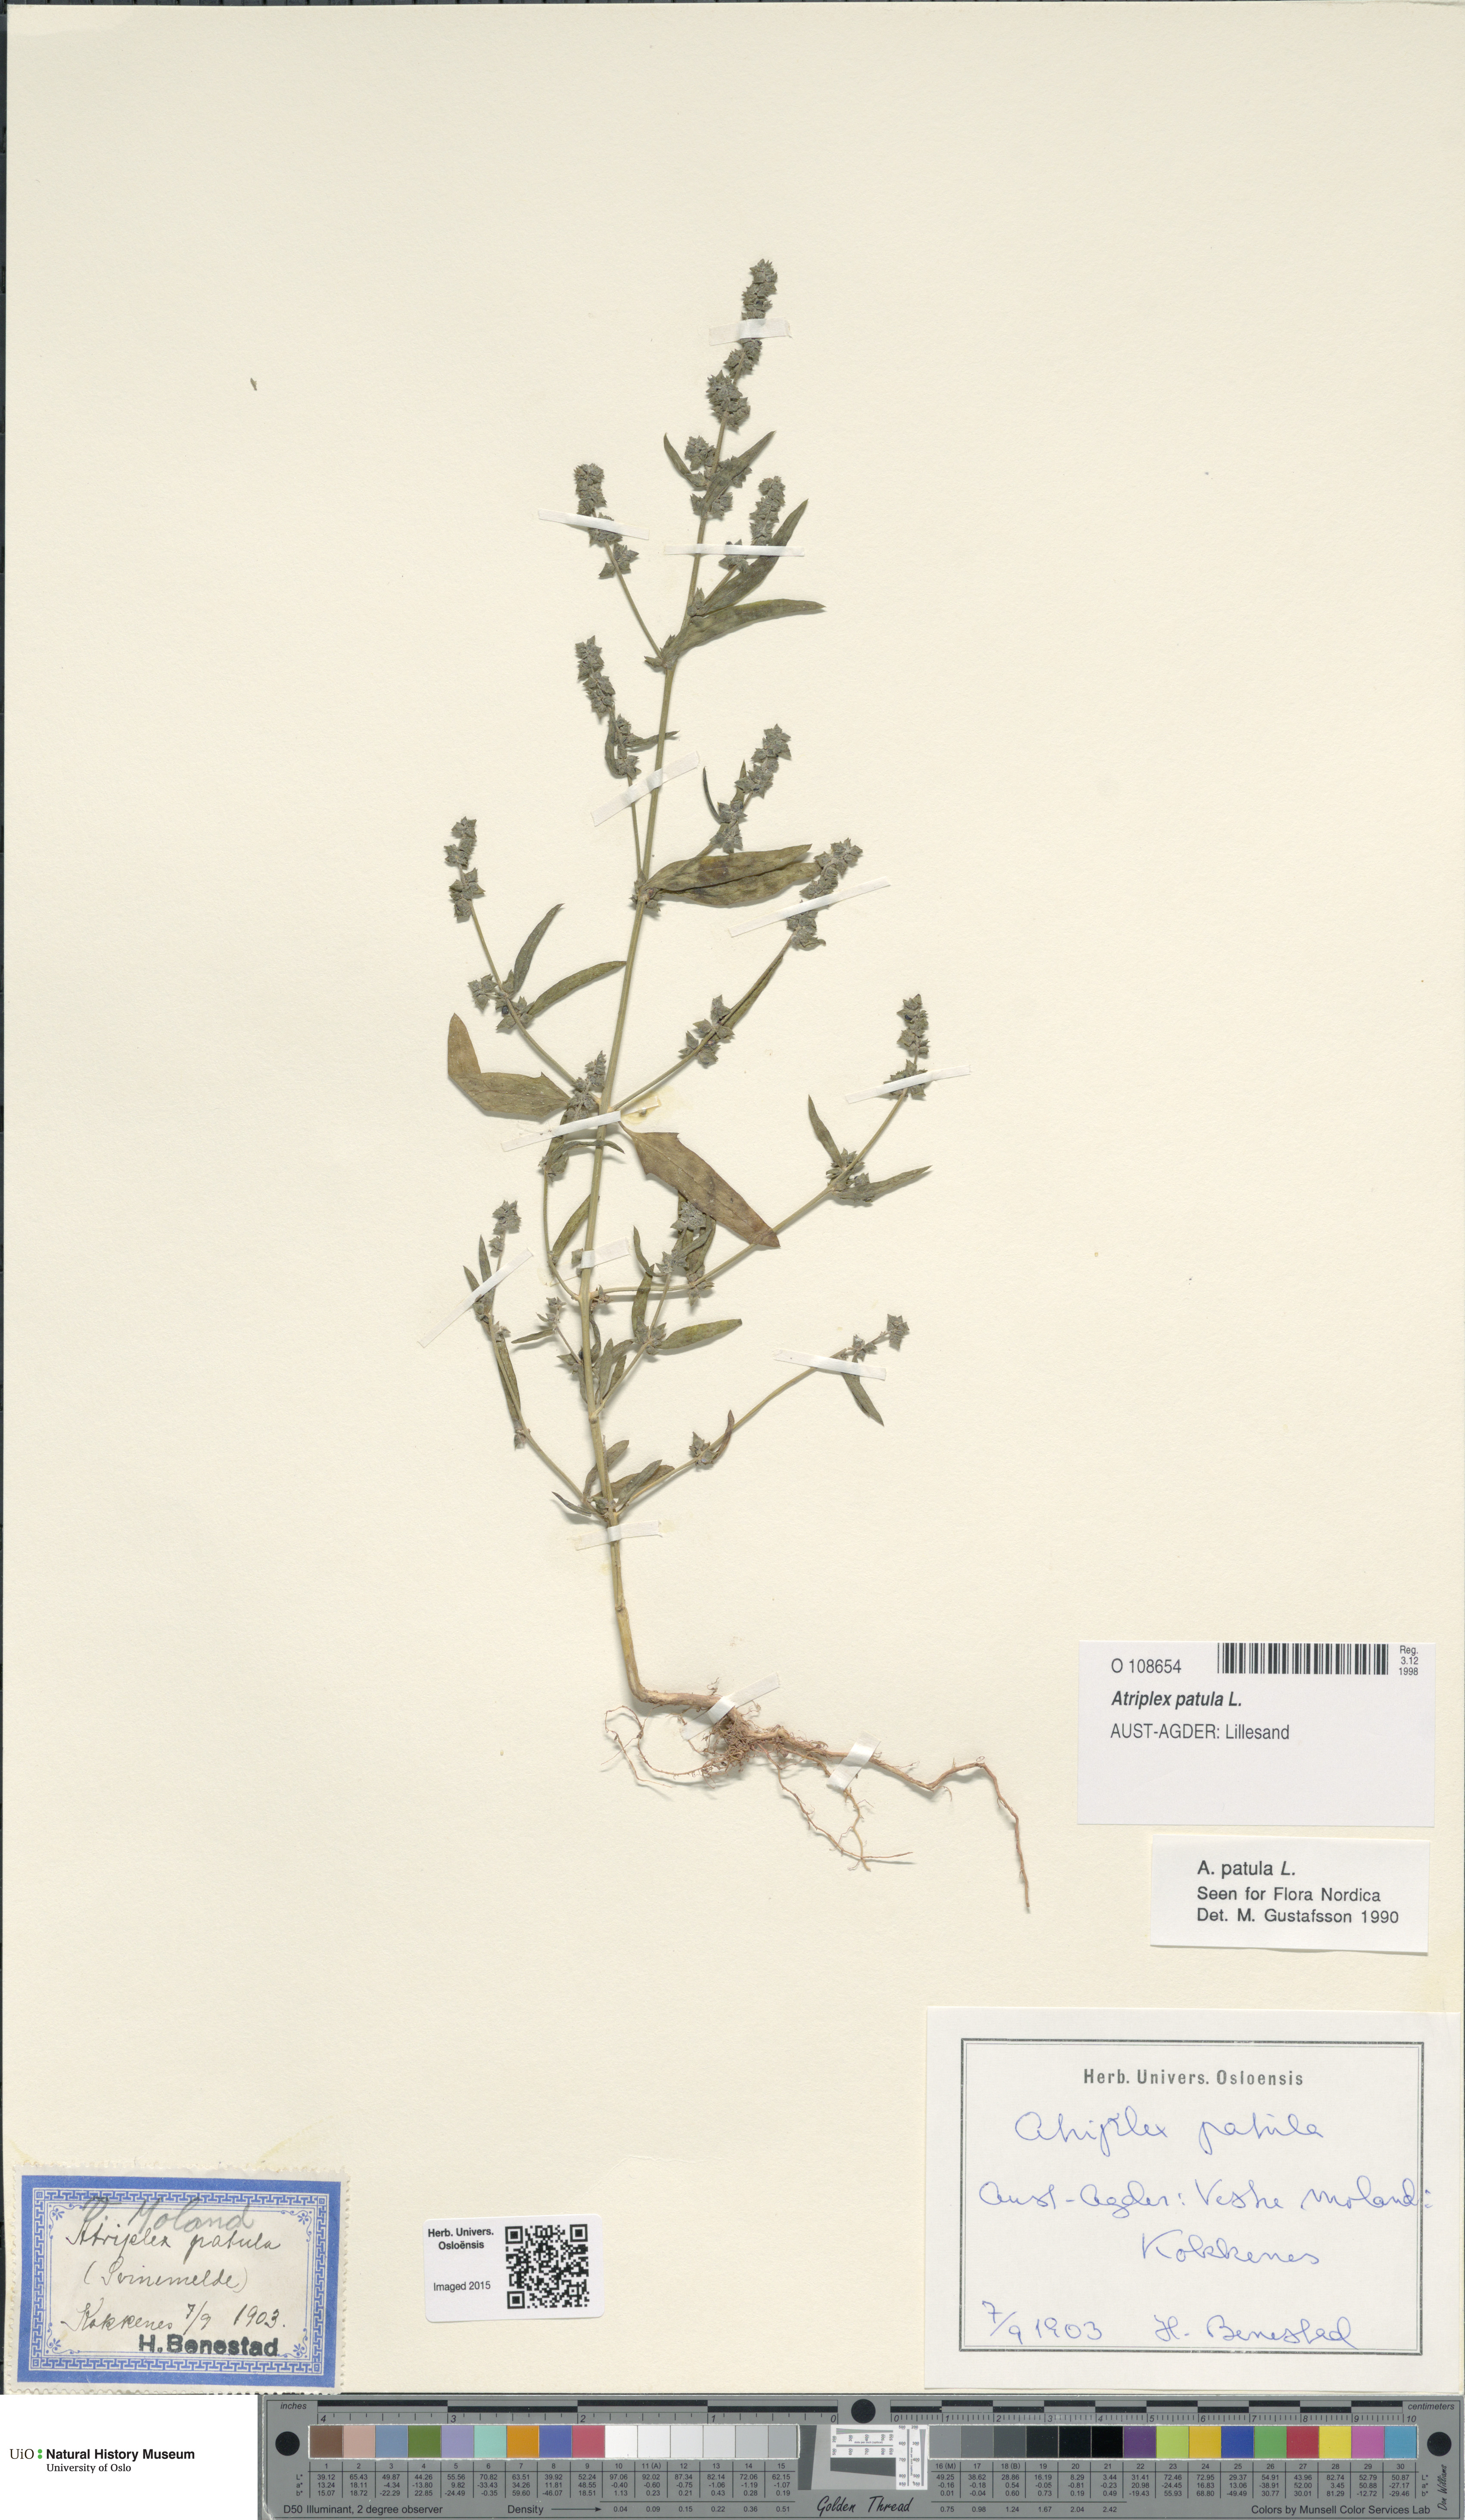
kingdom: Plantae
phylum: Tracheophyta
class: Magnoliopsida
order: Caryophyllales
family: Amaranthaceae
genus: Atriplex
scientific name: Atriplex patula
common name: Common orache
